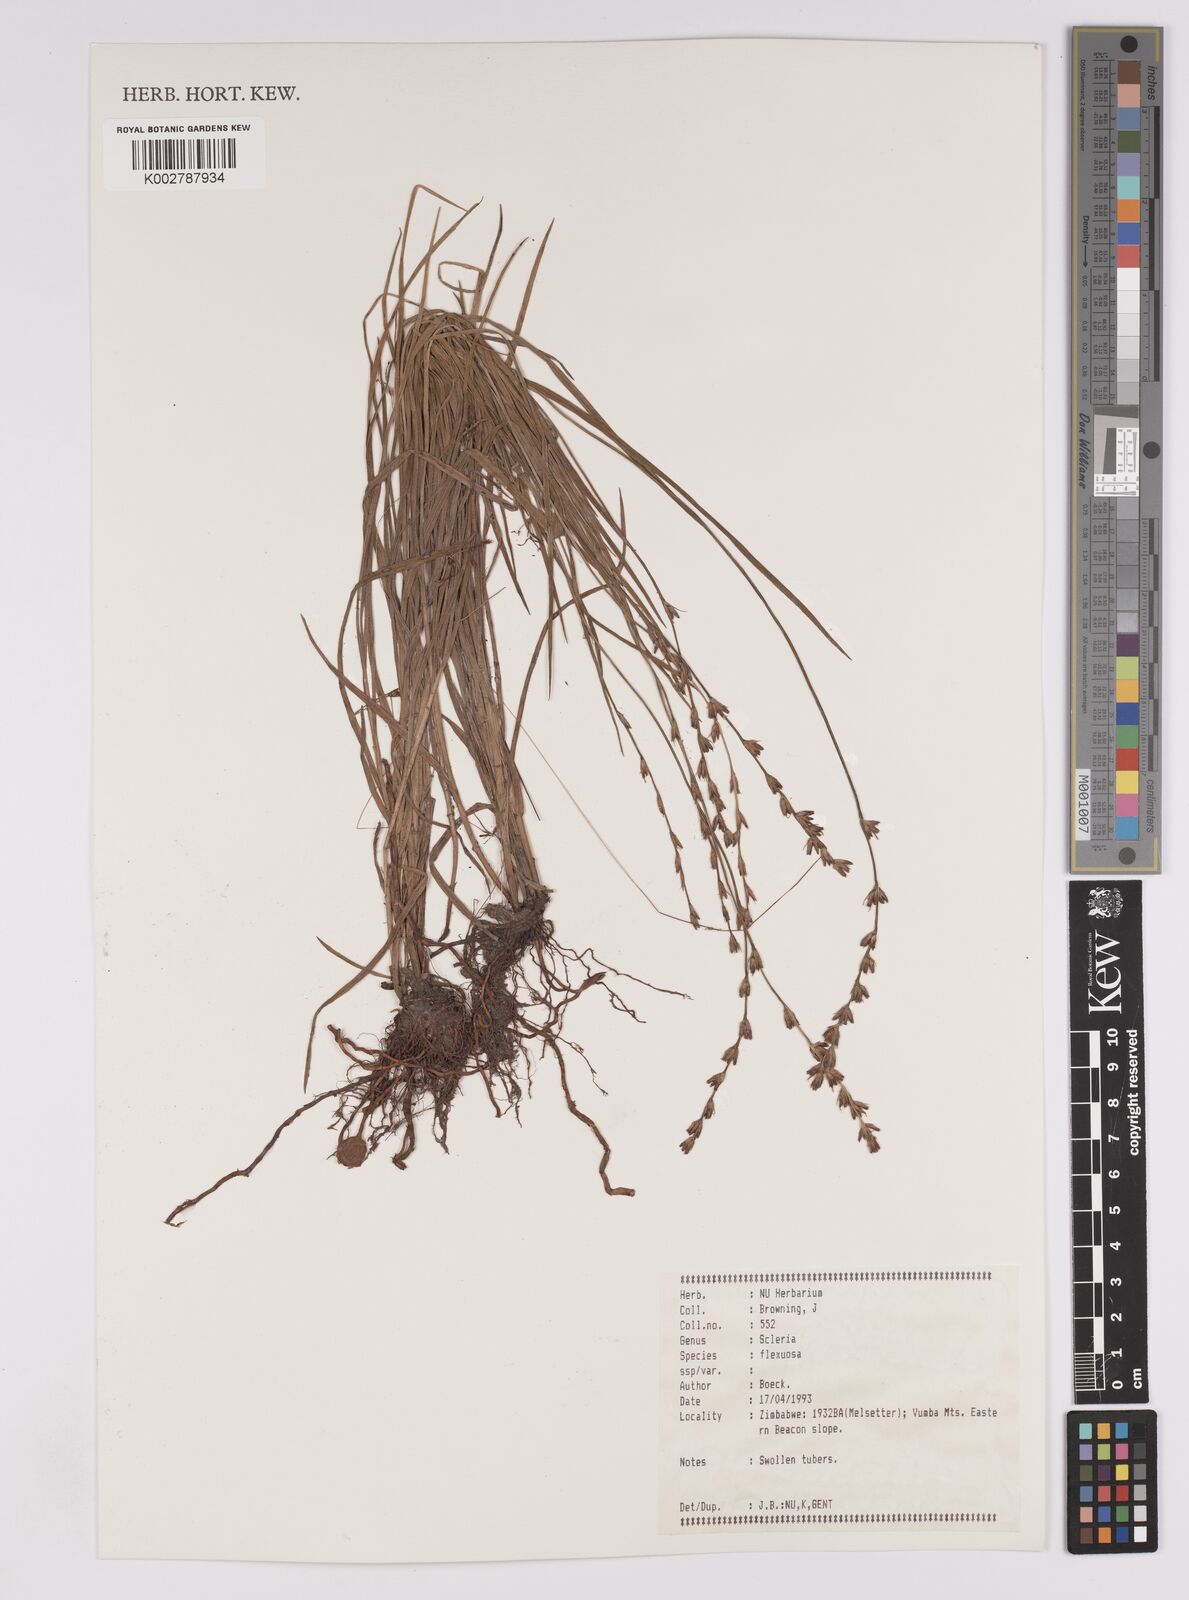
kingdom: Plantae
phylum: Tracheophyta
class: Liliopsida
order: Poales
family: Cyperaceae
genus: Scleria
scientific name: Scleria flexuosa
